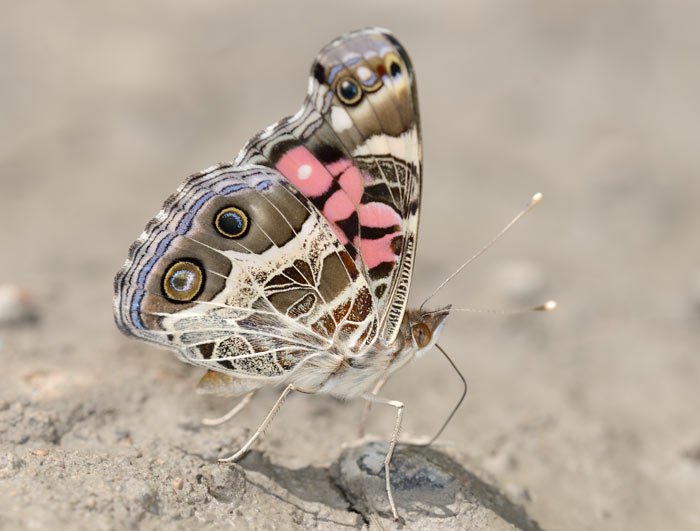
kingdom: Animalia
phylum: Arthropoda
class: Insecta
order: Lepidoptera
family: Nymphalidae
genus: Vanessa
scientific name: Vanessa virginiensis
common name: American Lady
